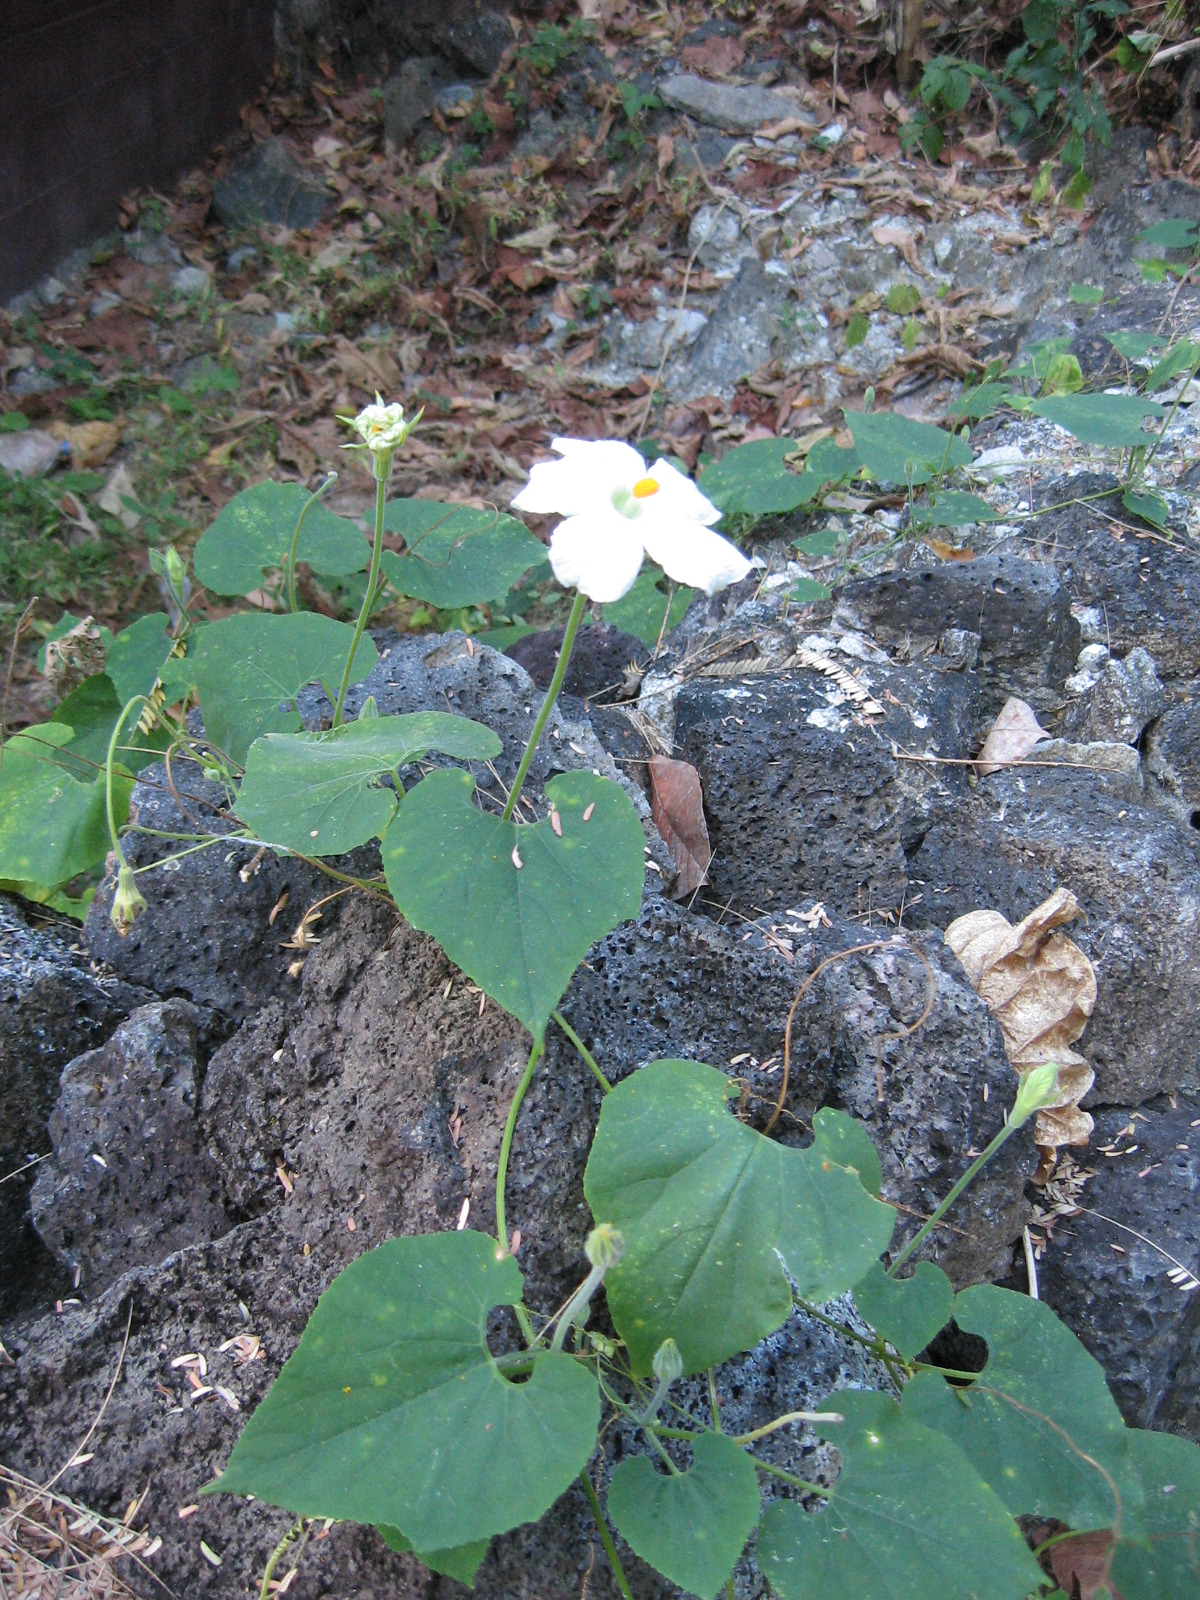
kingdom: Plantae
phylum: Tracheophyta
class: Magnoliopsida
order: Cucurbitales
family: Cucurbitaceae
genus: Polyclathra
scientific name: Polyclathra cucumerina
